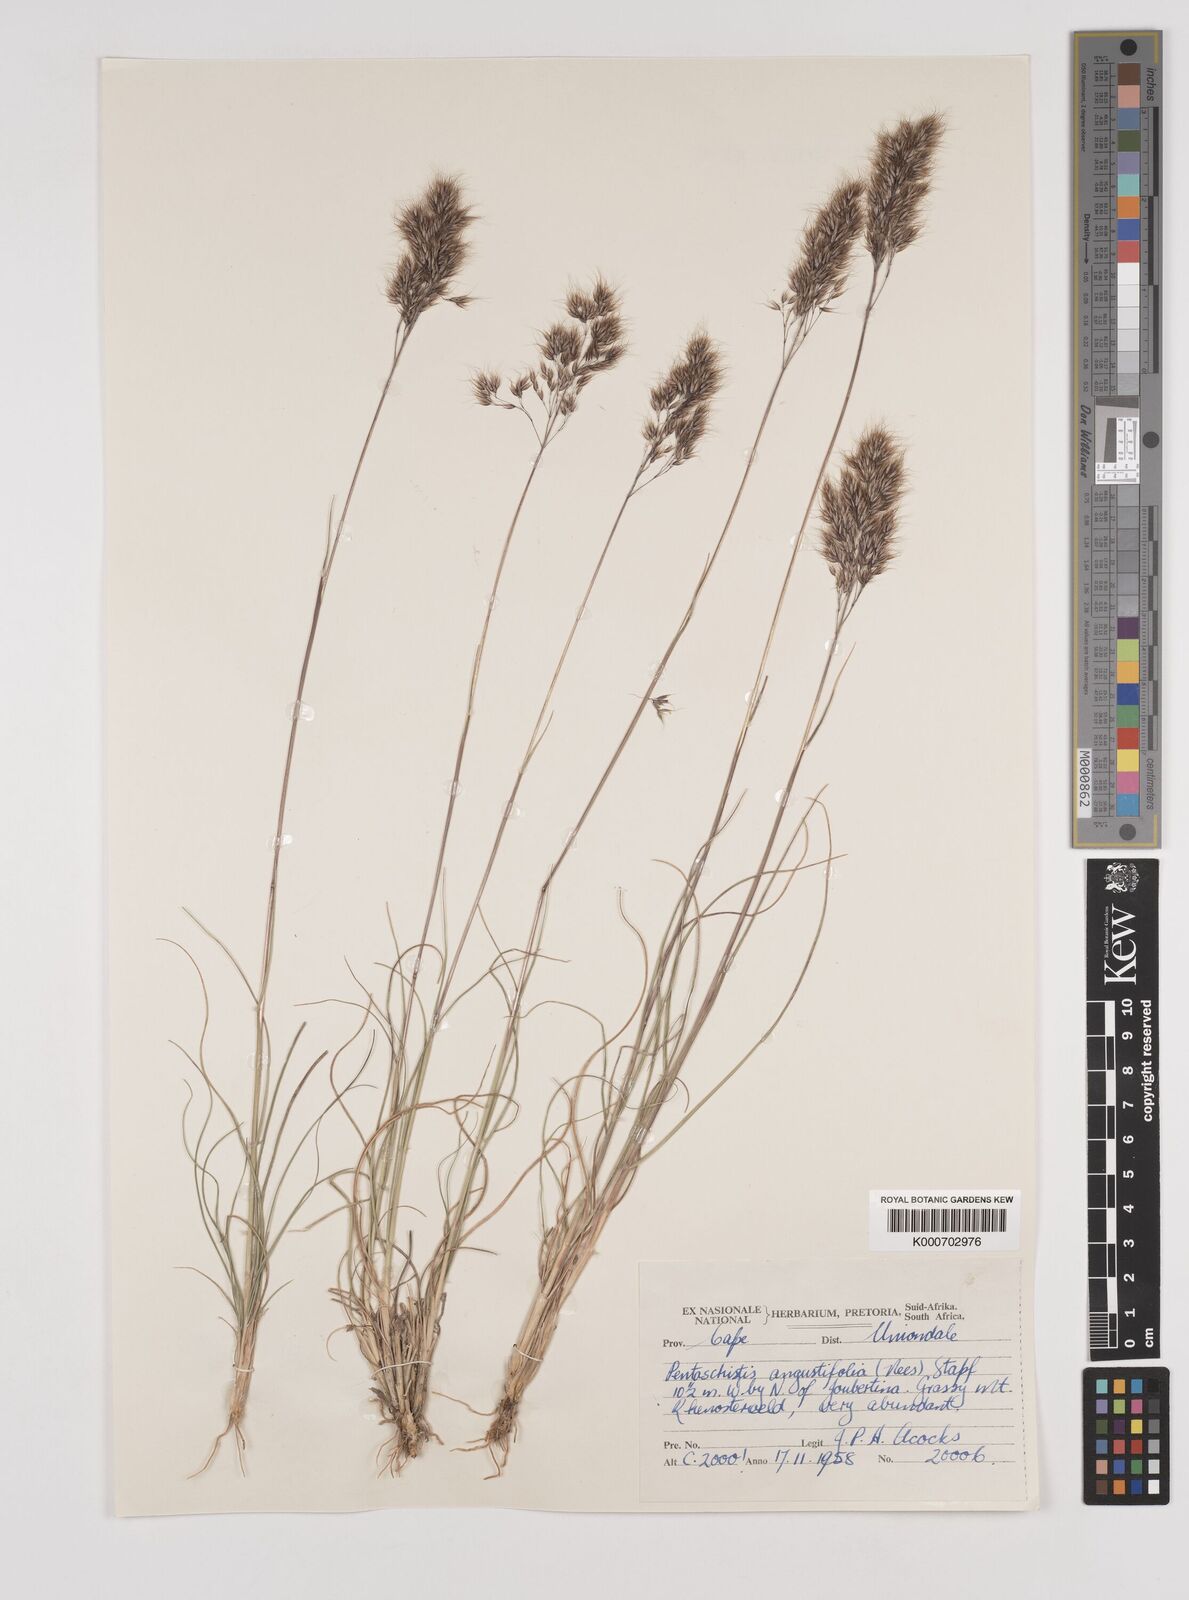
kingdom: Plantae
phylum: Tracheophyta
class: Liliopsida
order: Poales
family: Poaceae
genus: Pentameris
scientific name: Pentameris pallida
